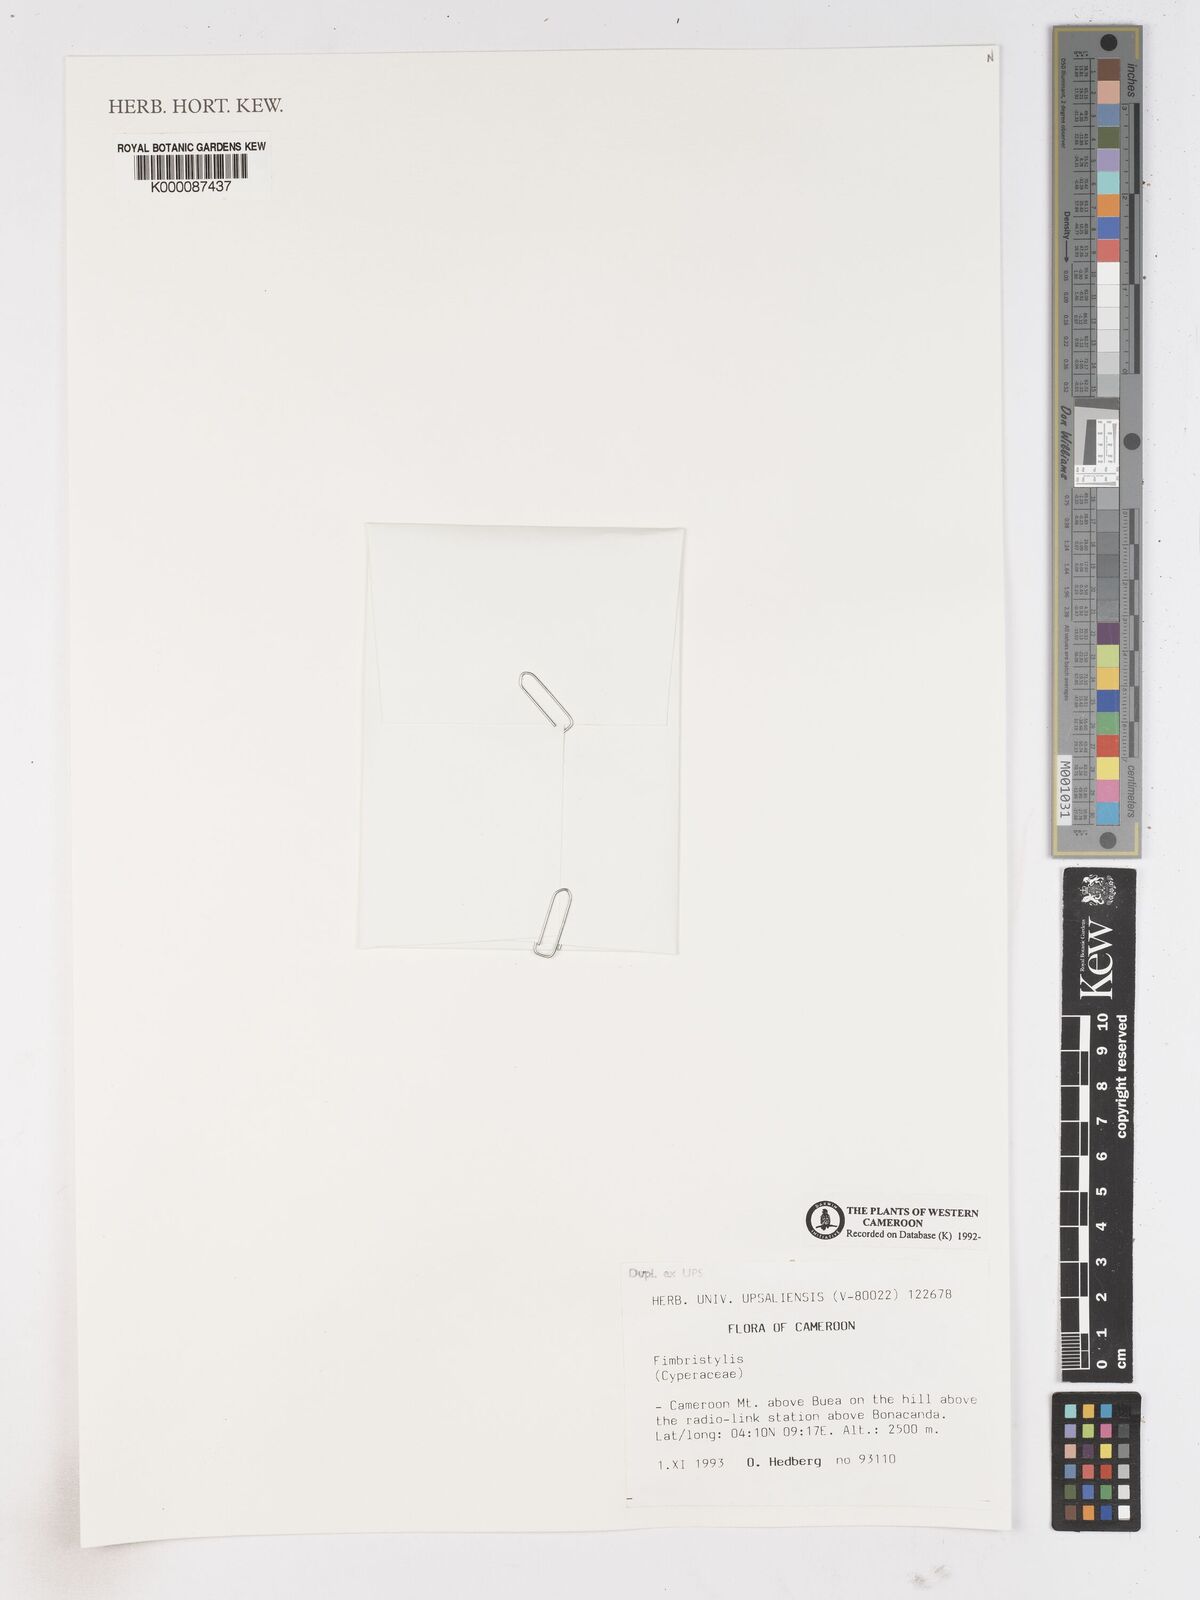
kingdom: Plantae
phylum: Tracheophyta
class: Liliopsida
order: Poales
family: Cyperaceae
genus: Fimbristylis
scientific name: Fimbristylis
